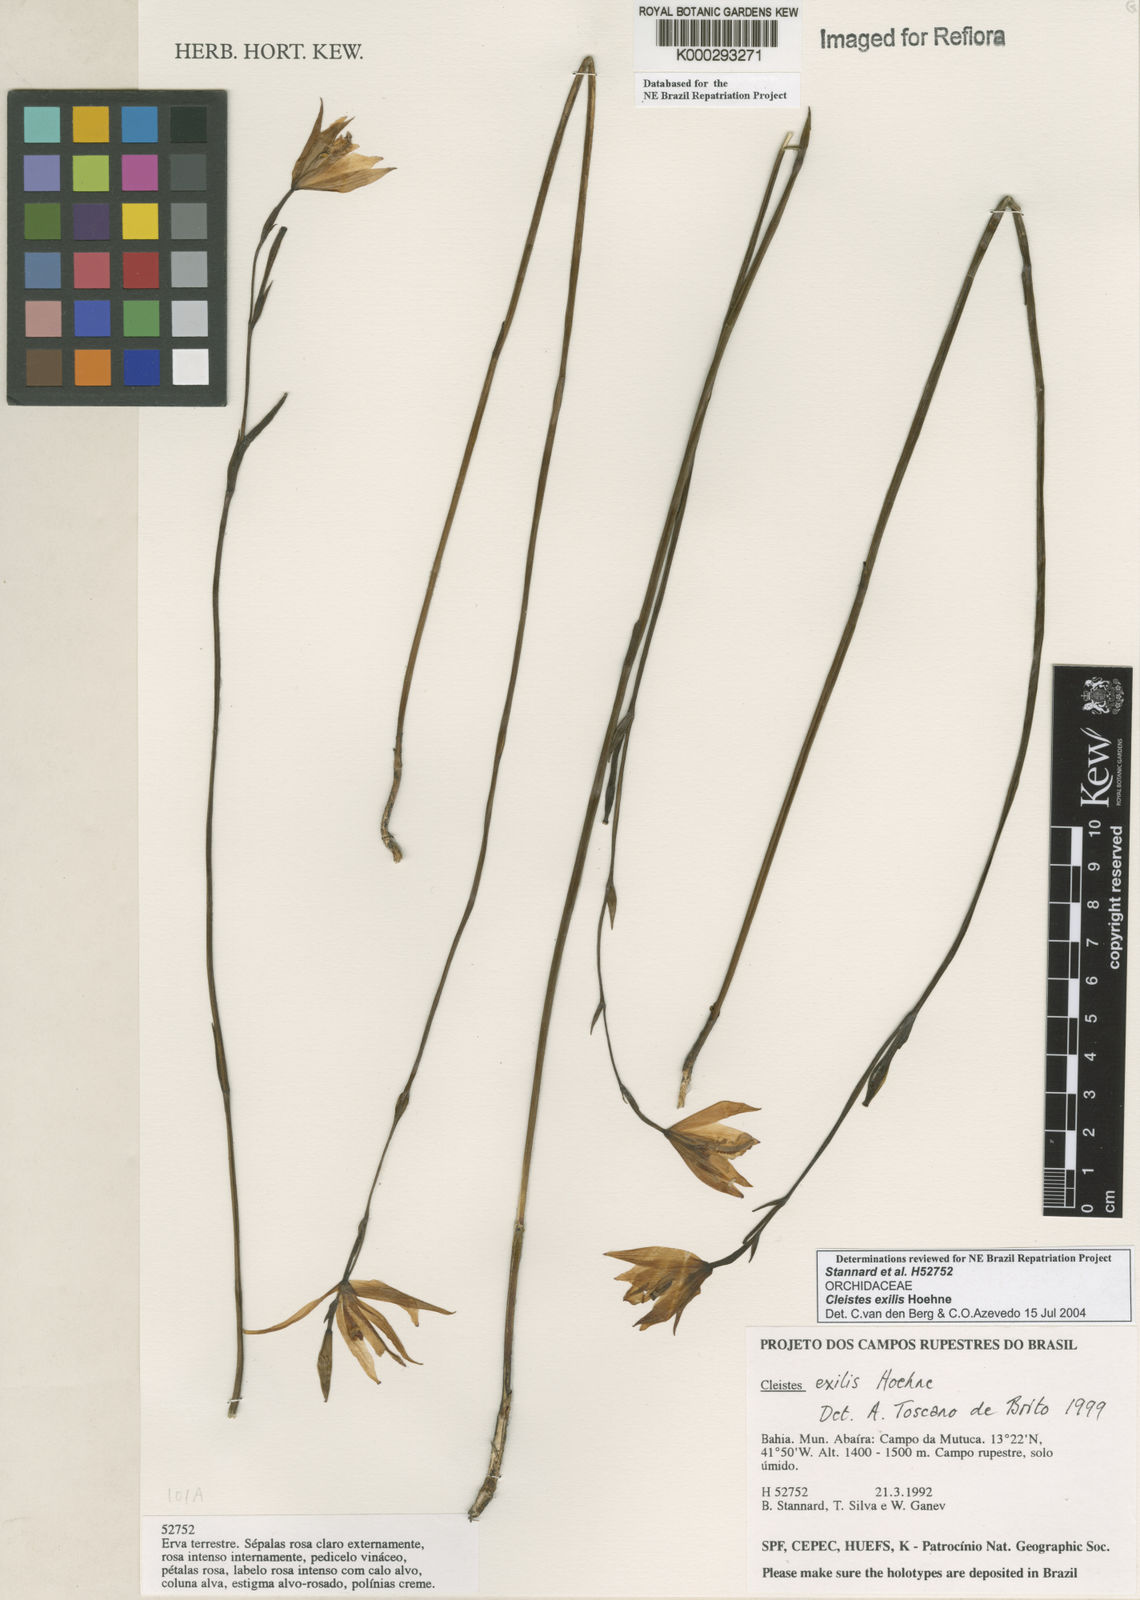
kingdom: Plantae
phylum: Tracheophyta
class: Liliopsida
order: Asparagales
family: Orchidaceae
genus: Cleistes
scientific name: Cleistes exilis
